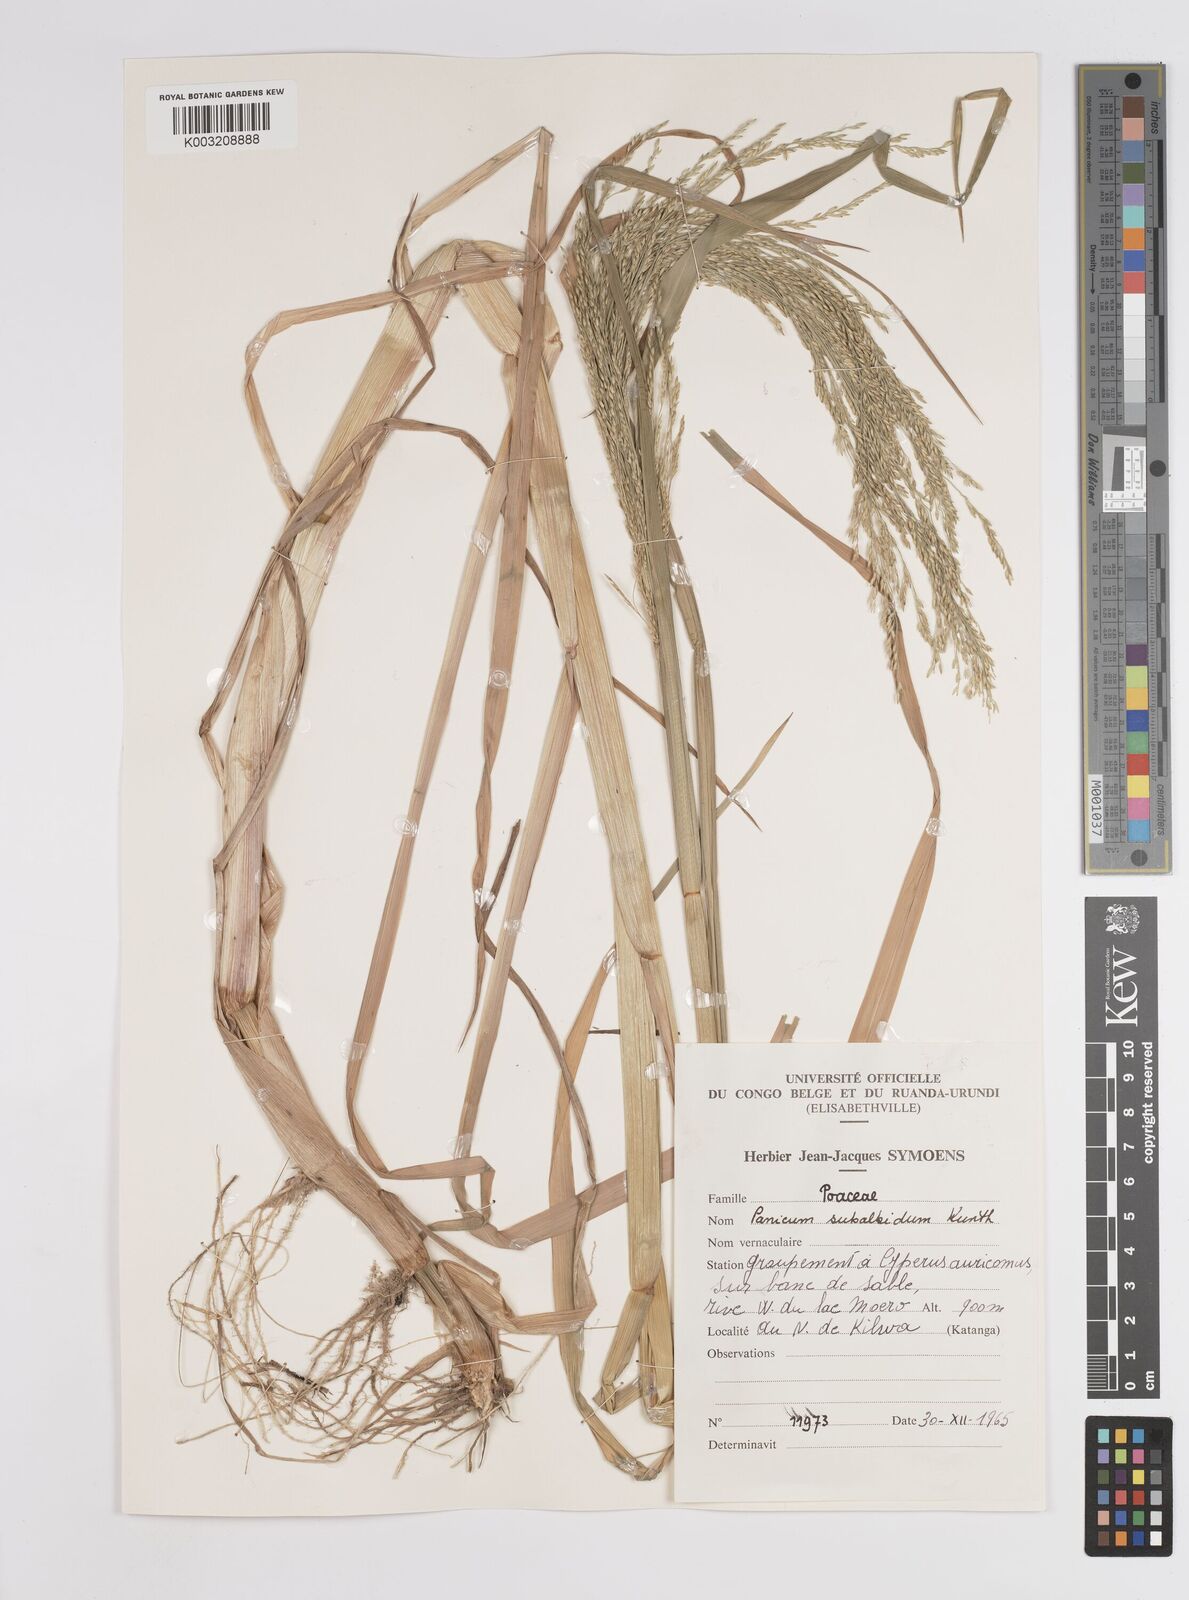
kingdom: Plantae
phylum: Tracheophyta
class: Liliopsida
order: Poales
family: Poaceae
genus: Panicum
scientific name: Panicum subalbidum
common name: Elbow buffalo grass
